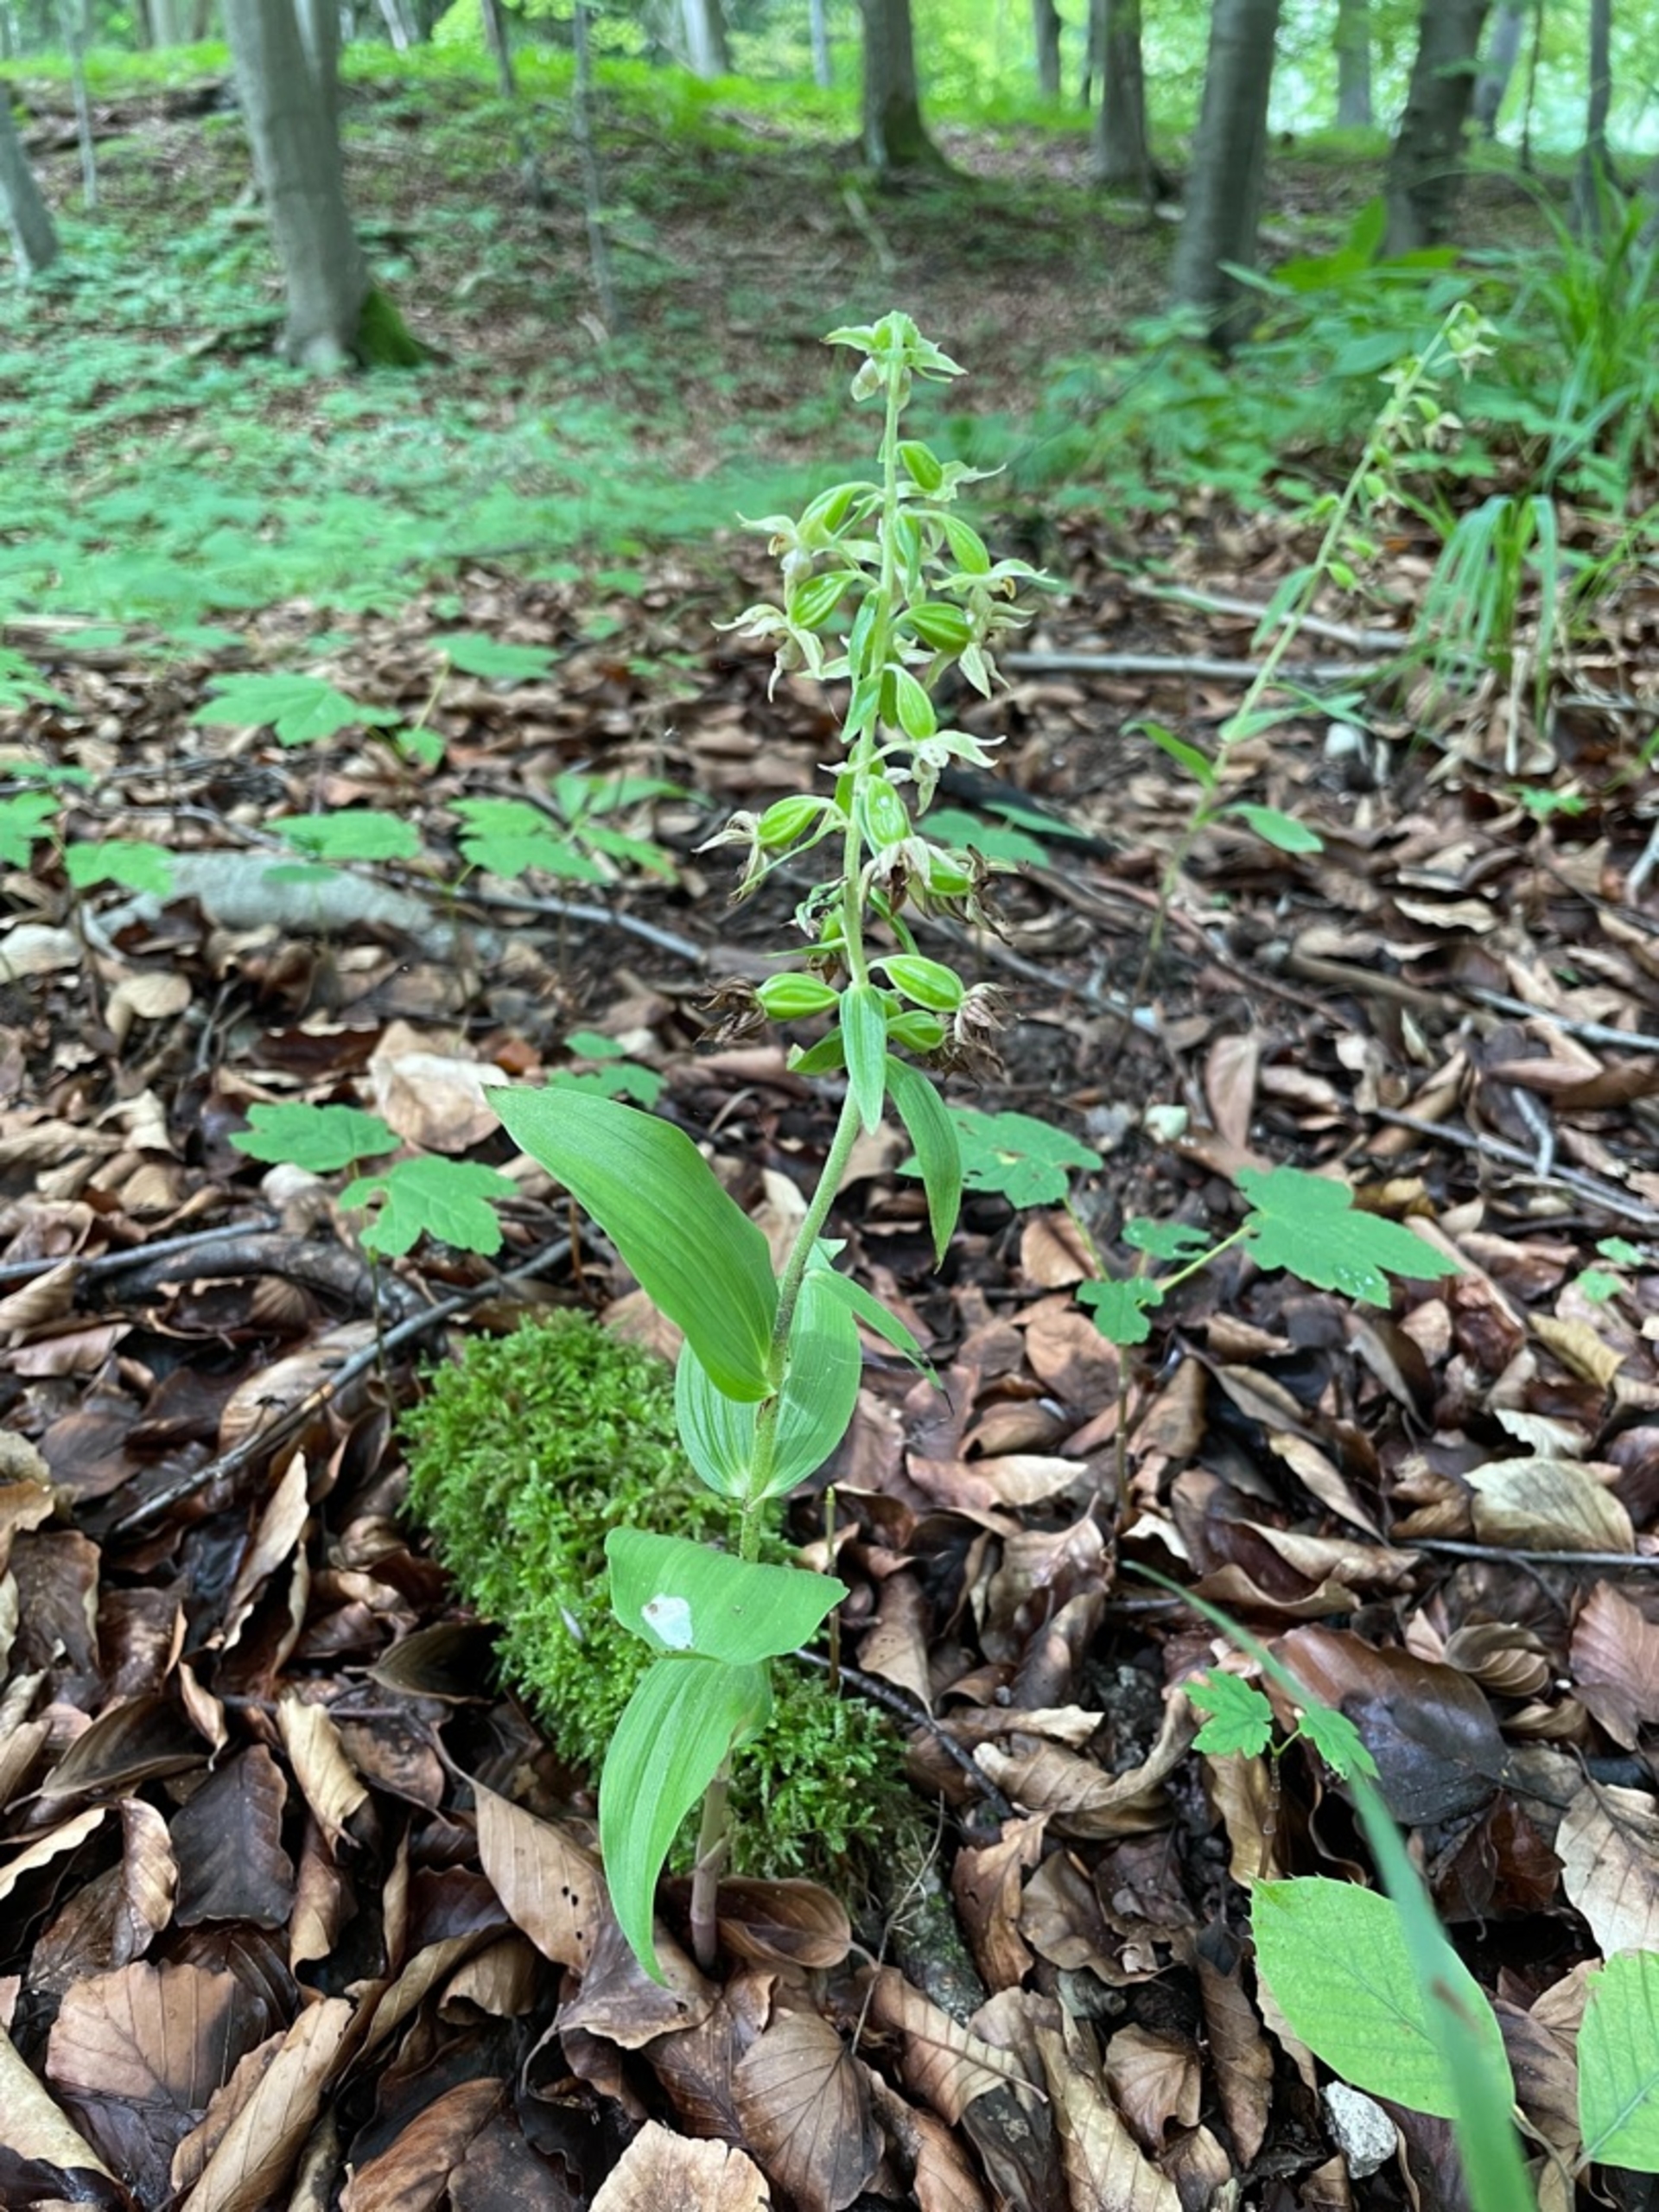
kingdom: Plantae
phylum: Tracheophyta
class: Liliopsida
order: Asparagales
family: Orchidaceae
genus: Epipactis
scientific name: Epipactis leptochila
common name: Storblomstret hullæbe
